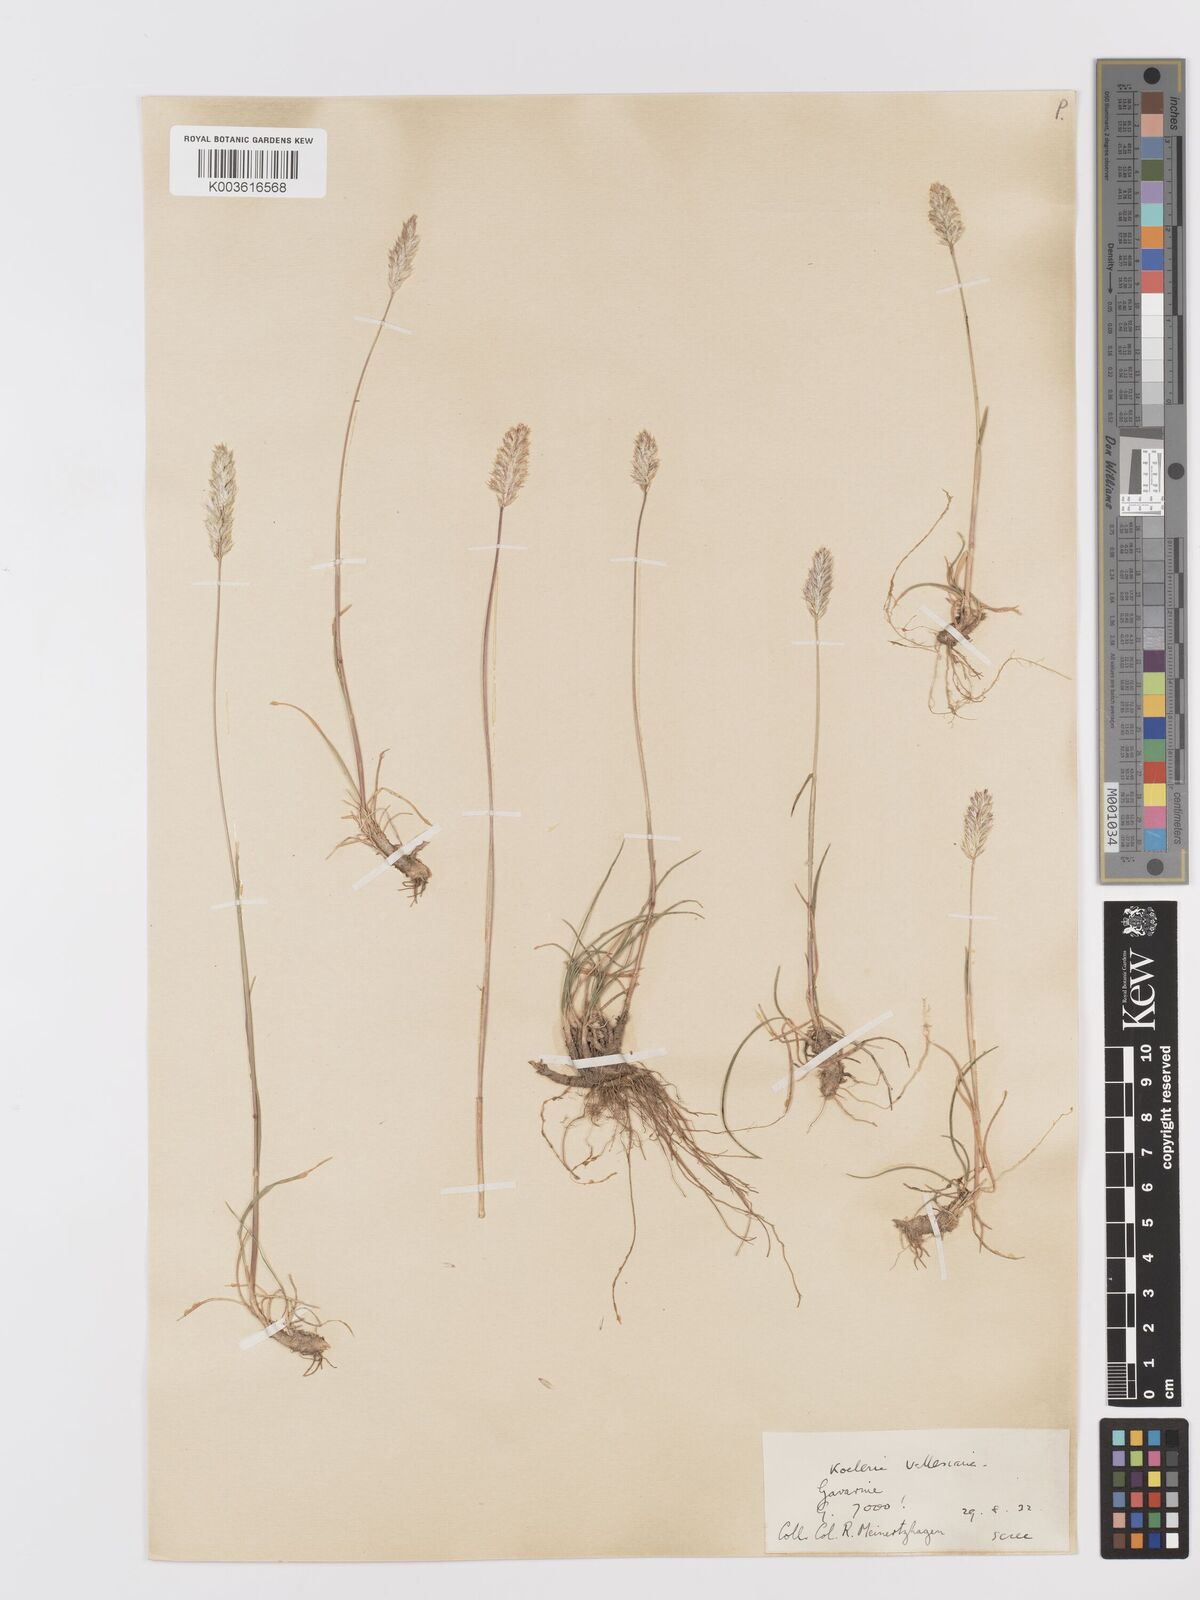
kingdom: Plantae
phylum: Tracheophyta
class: Liliopsida
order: Poales
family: Poaceae
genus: Koeleria
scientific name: Koeleria vallesiana
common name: Somerset hair-grass
